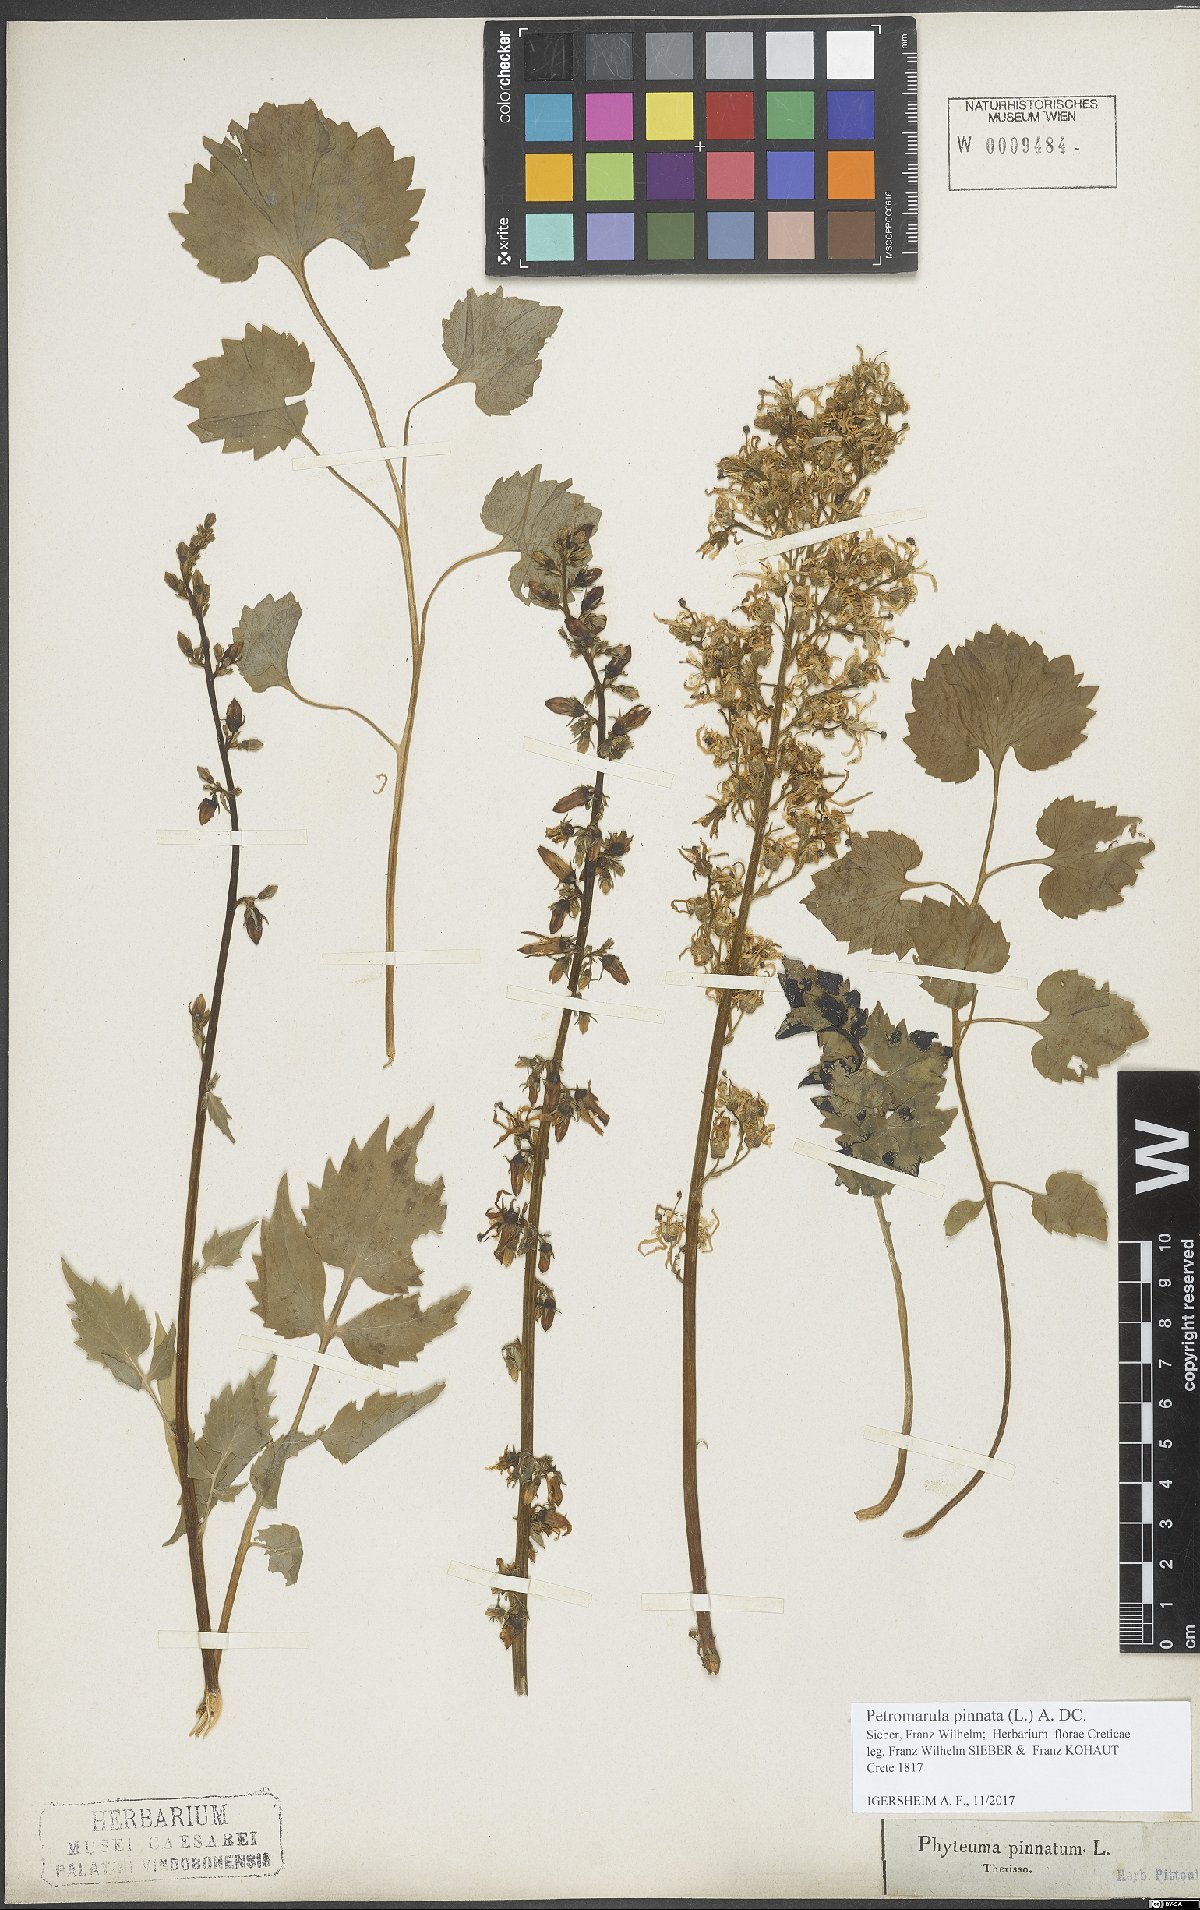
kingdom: Plantae
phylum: Tracheophyta
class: Magnoliopsida
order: Asterales
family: Campanulaceae
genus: Petromarula
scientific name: Petromarula pinnata
